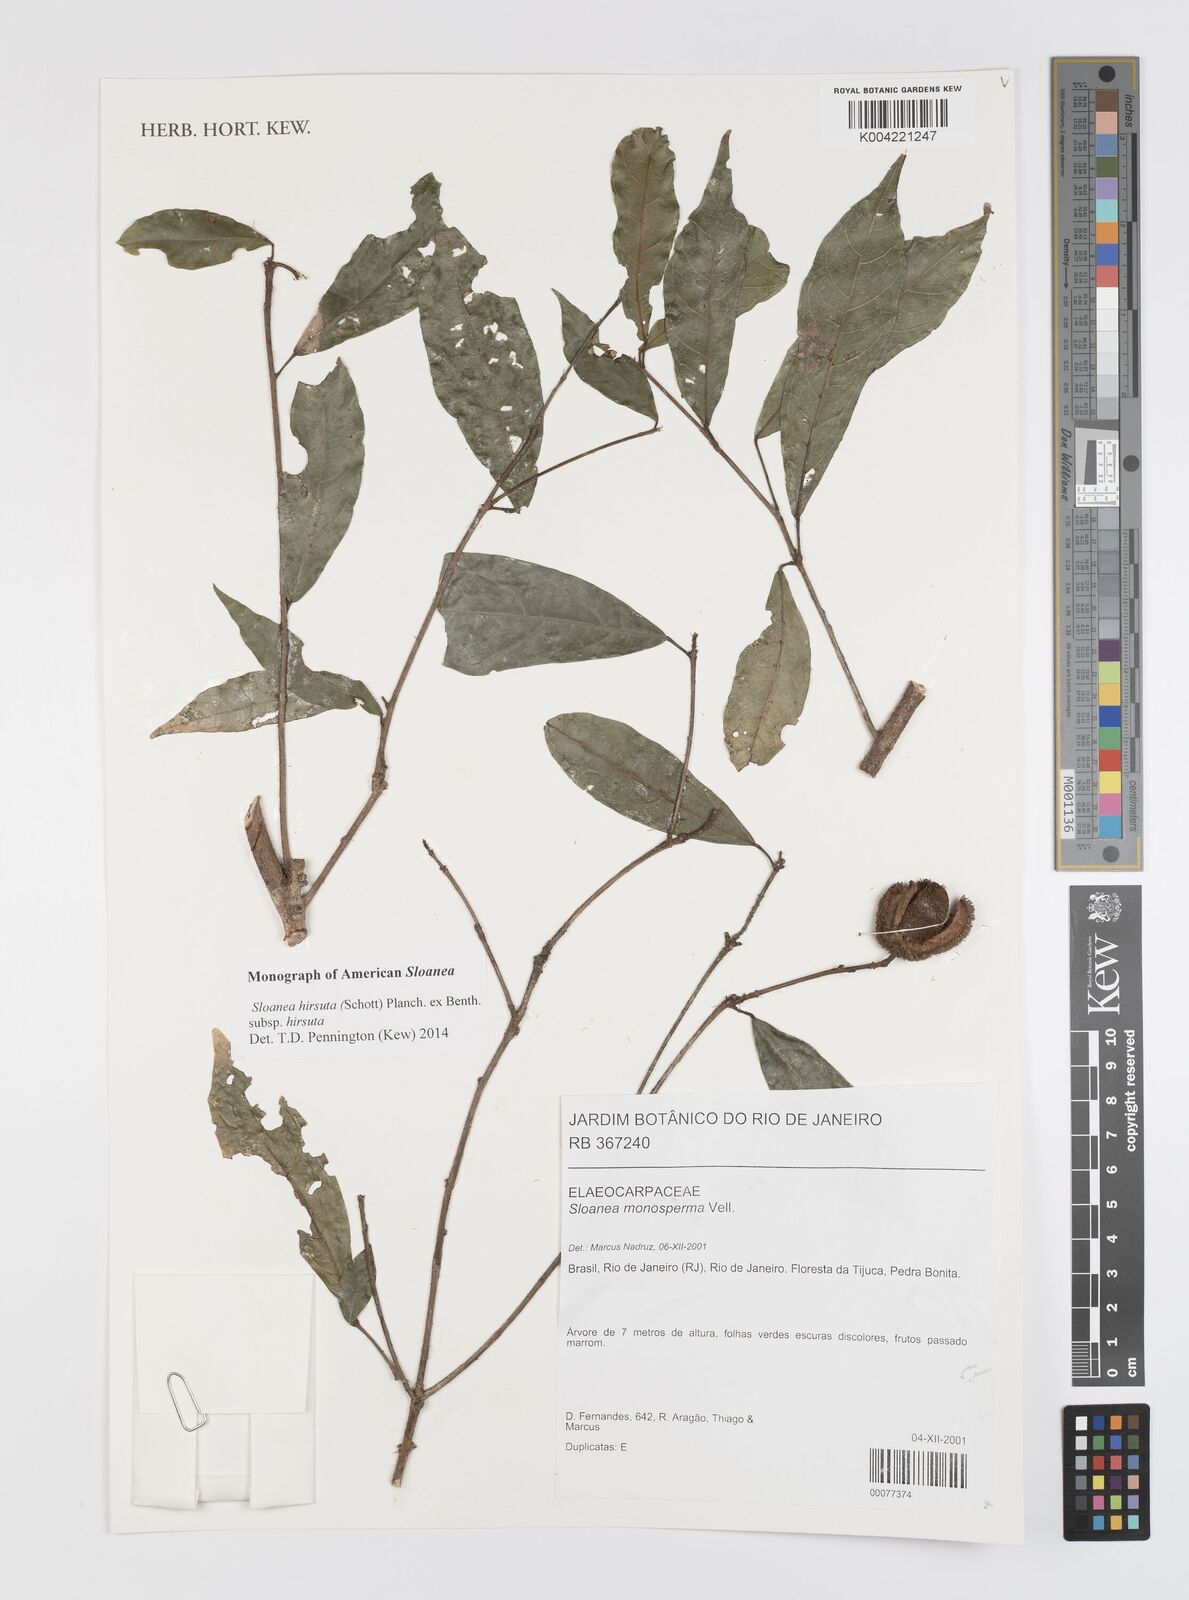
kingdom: Plantae
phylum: Tracheophyta
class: Magnoliopsida
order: Oxalidales
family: Elaeocarpaceae
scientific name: Elaeocarpaceae
